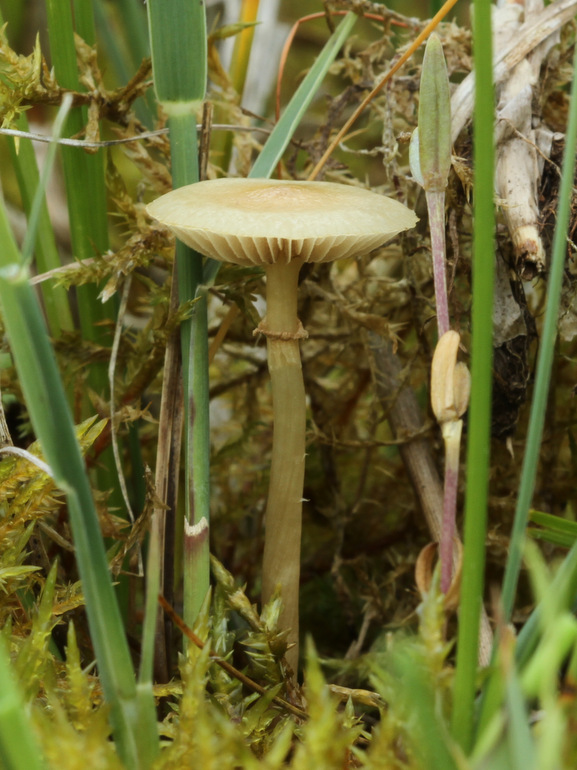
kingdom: Fungi
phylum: Basidiomycota
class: Agaricomycetes
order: Agaricales
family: Strophariaceae
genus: Agrocybe
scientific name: Agrocybe elatella
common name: mose-agerhat
